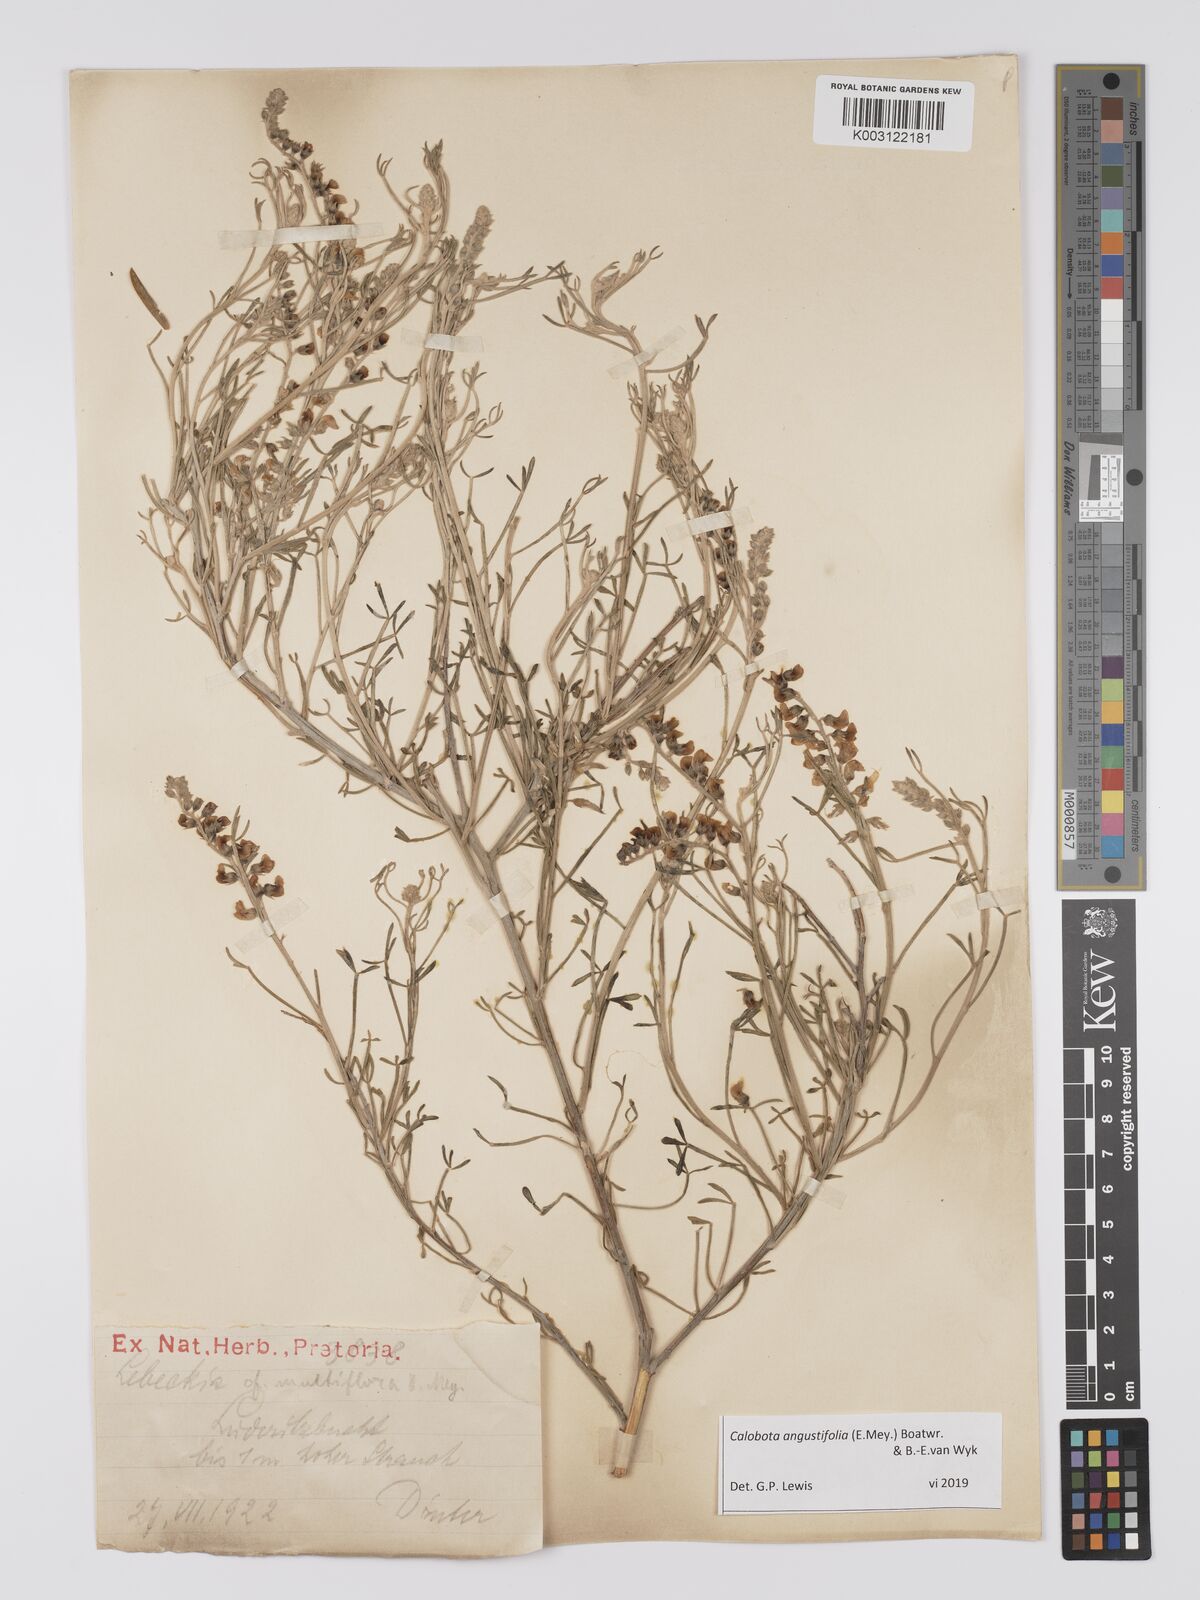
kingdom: Plantae
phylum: Tracheophyta
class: Magnoliopsida
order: Fabales
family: Fabaceae
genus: Calobota
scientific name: Calobota angustifolia
